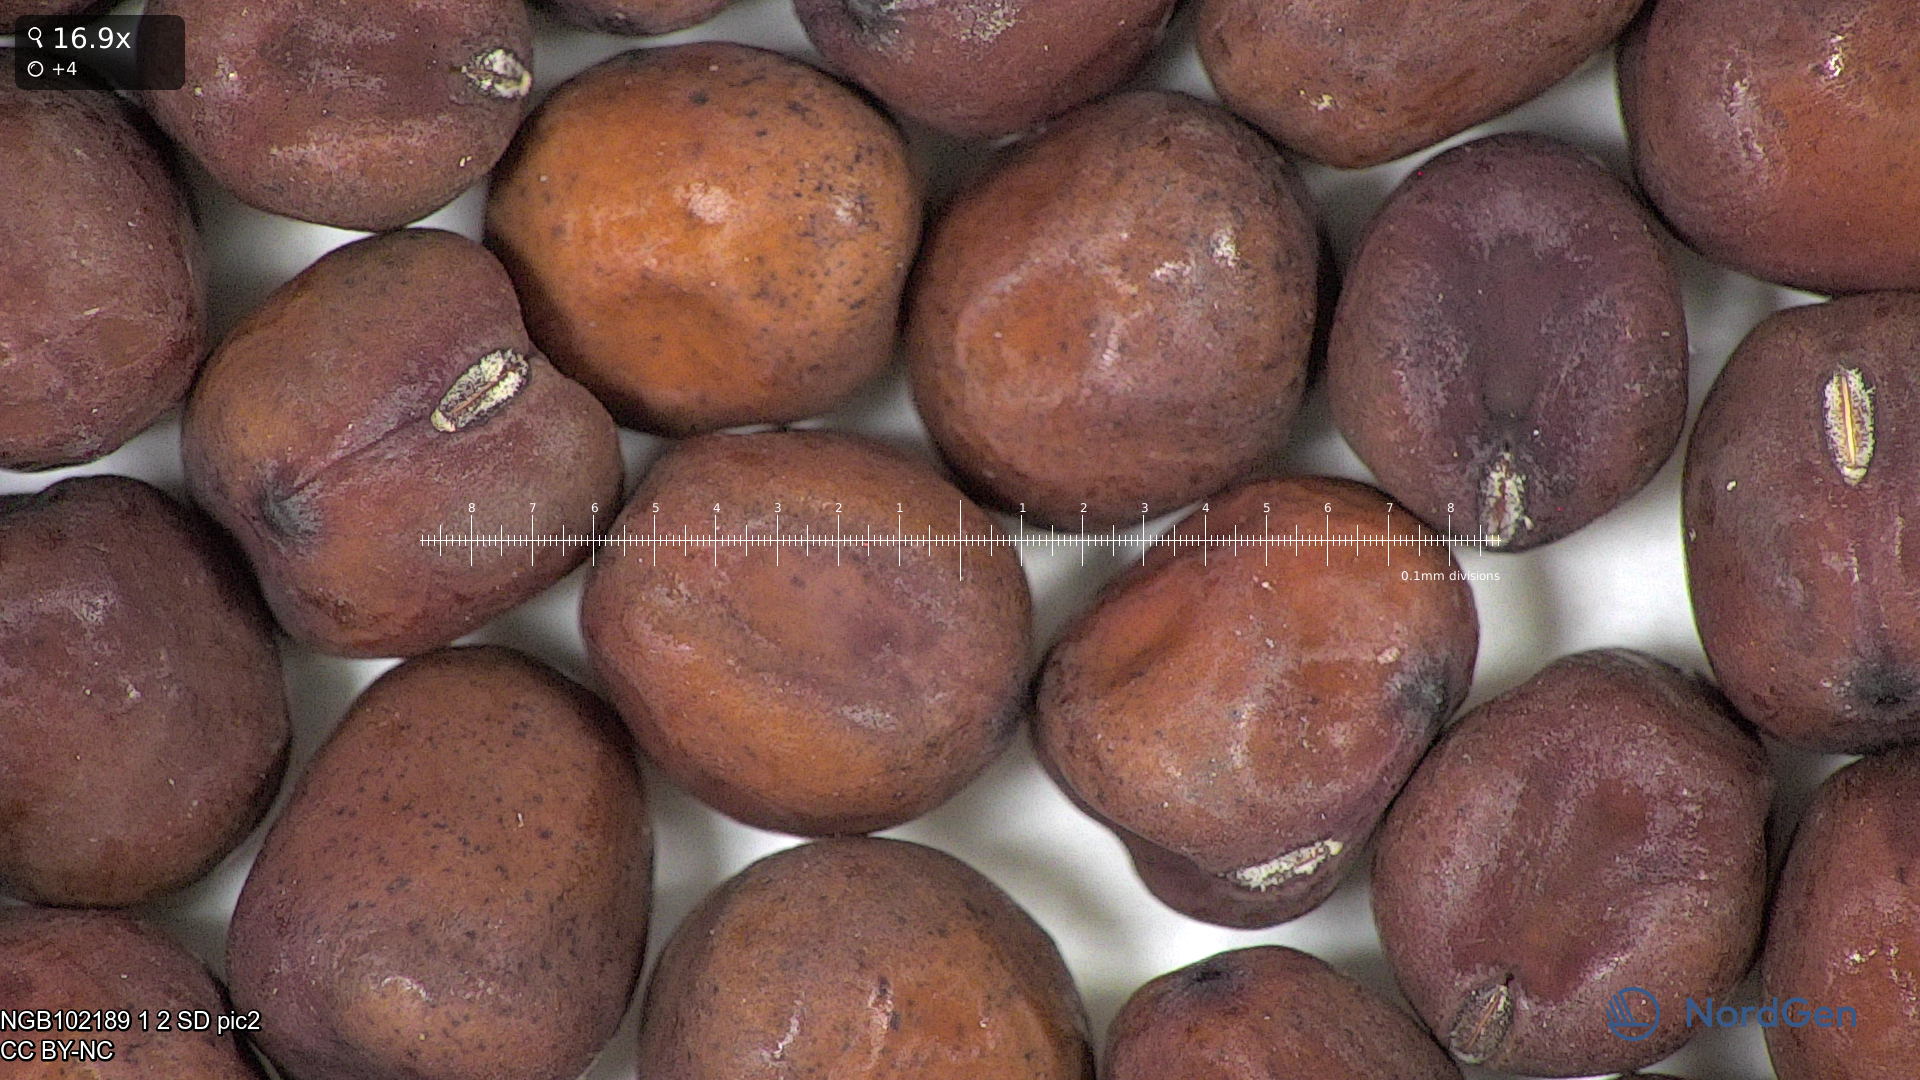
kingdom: Plantae
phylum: Tracheophyta
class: Magnoliopsida
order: Fabales
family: Fabaceae
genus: Lathyrus
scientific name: Lathyrus oleraceus
